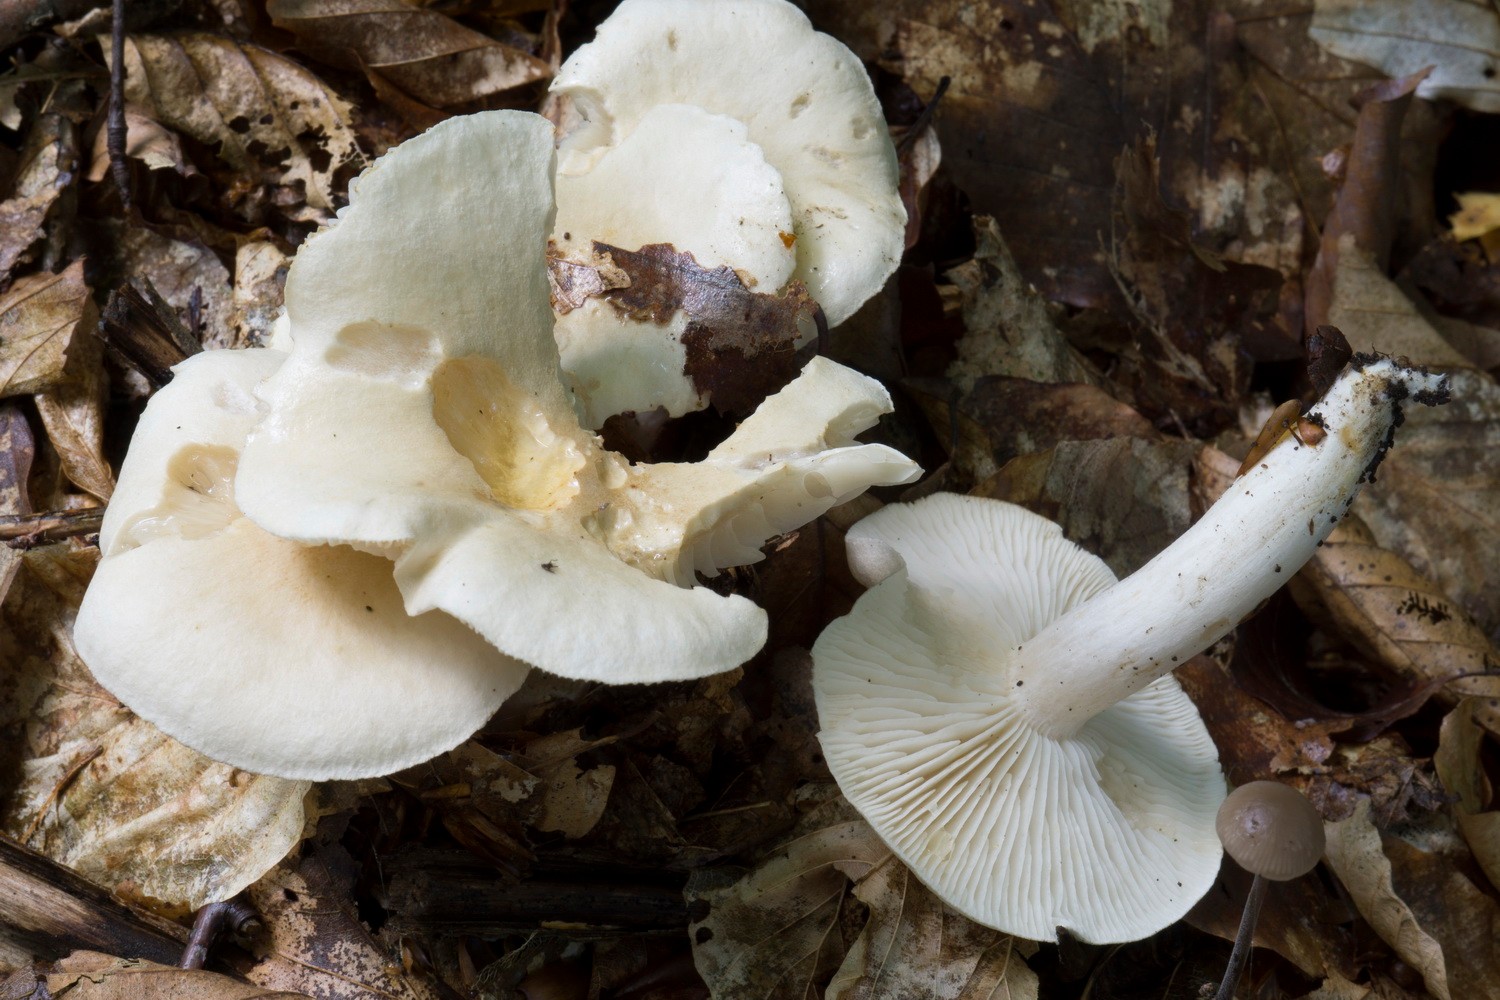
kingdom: Fungi
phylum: Basidiomycota
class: Agaricomycetes
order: Agaricales
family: Tricholomataceae
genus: Tricholoma
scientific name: Tricholoma lascivum
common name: stinkende ridderhat
